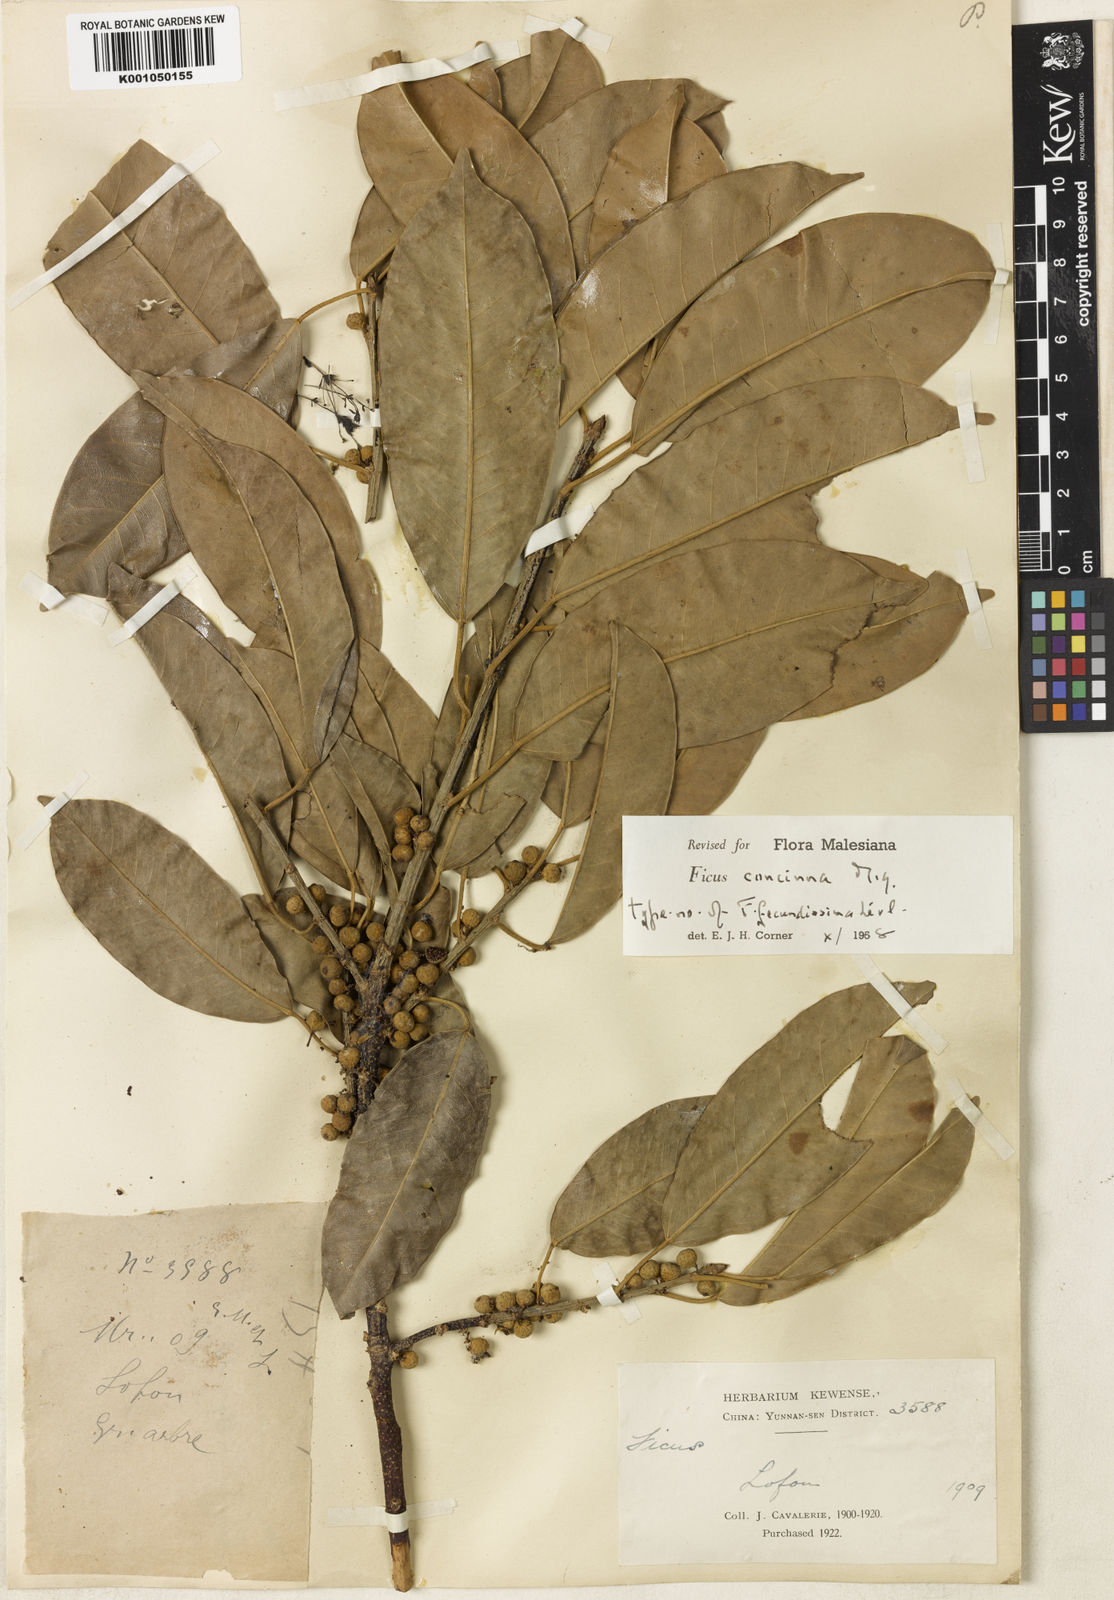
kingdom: Plantae
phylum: Tracheophyta
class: Magnoliopsida
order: Rosales
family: Moraceae
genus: Ficus
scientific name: Ficus concinna
